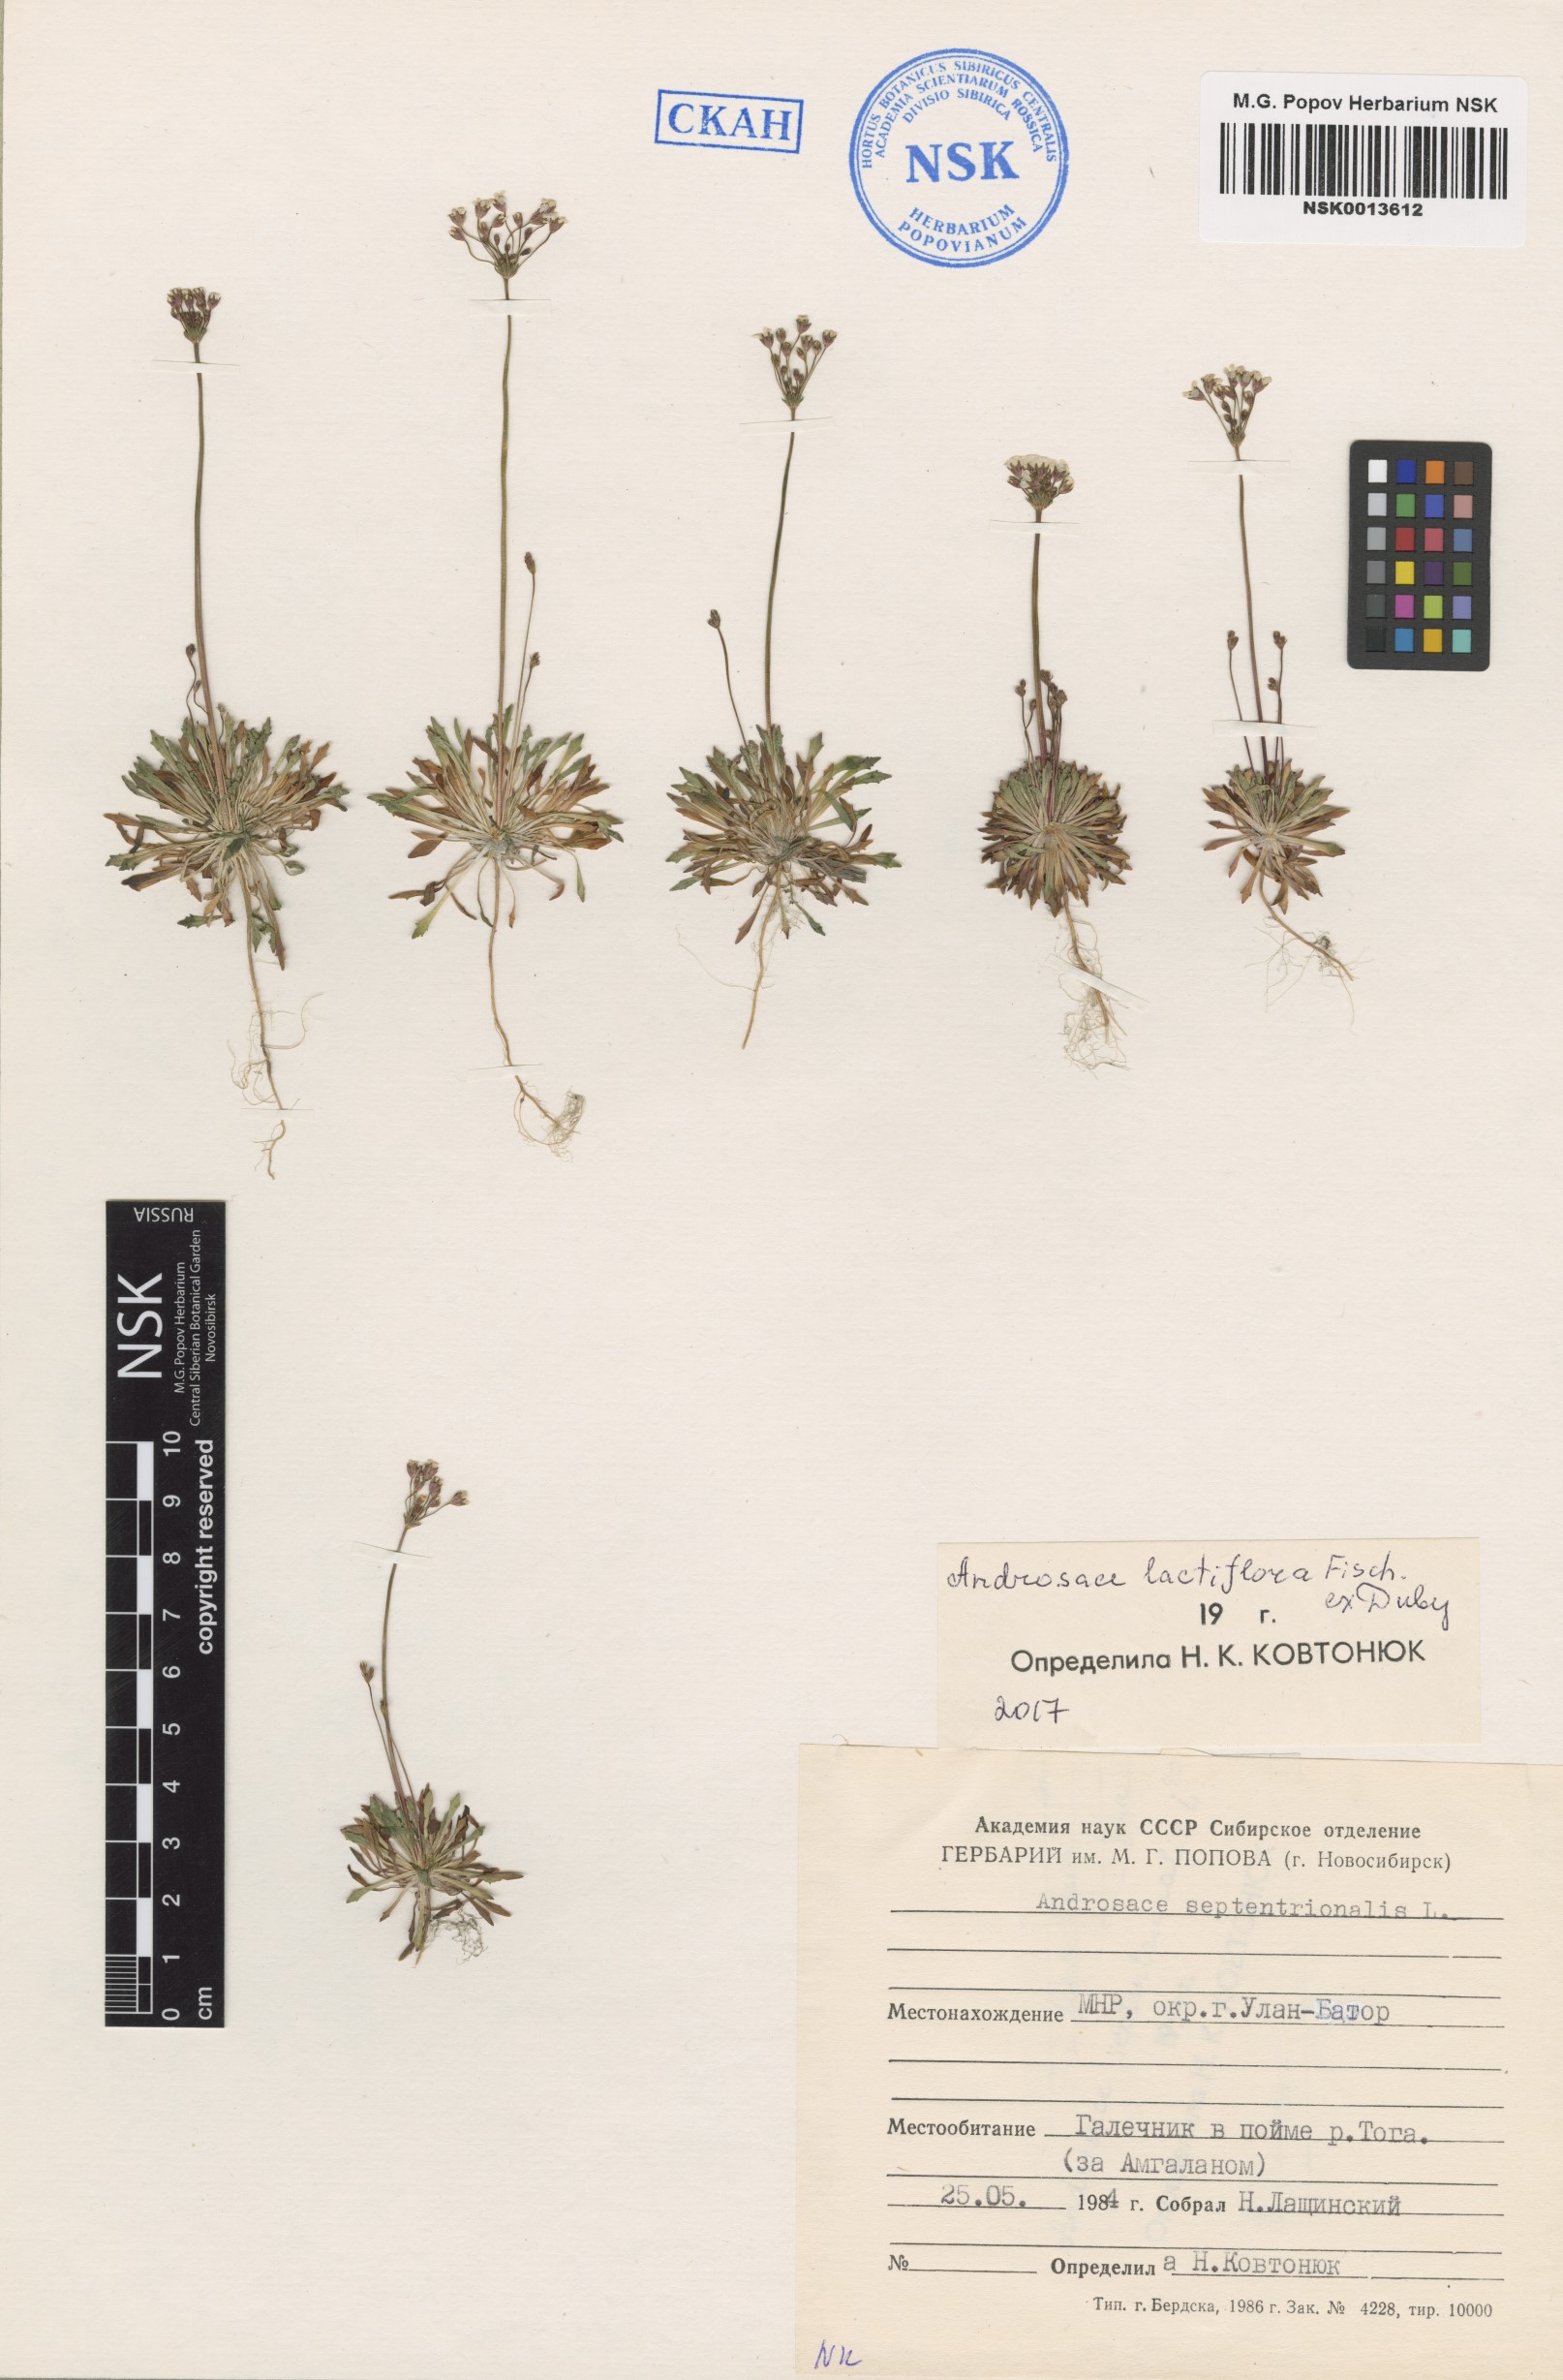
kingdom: Plantae
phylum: Tracheophyta
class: Magnoliopsida
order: Ericales
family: Primulaceae
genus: Androsace
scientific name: Androsace lactiflora
